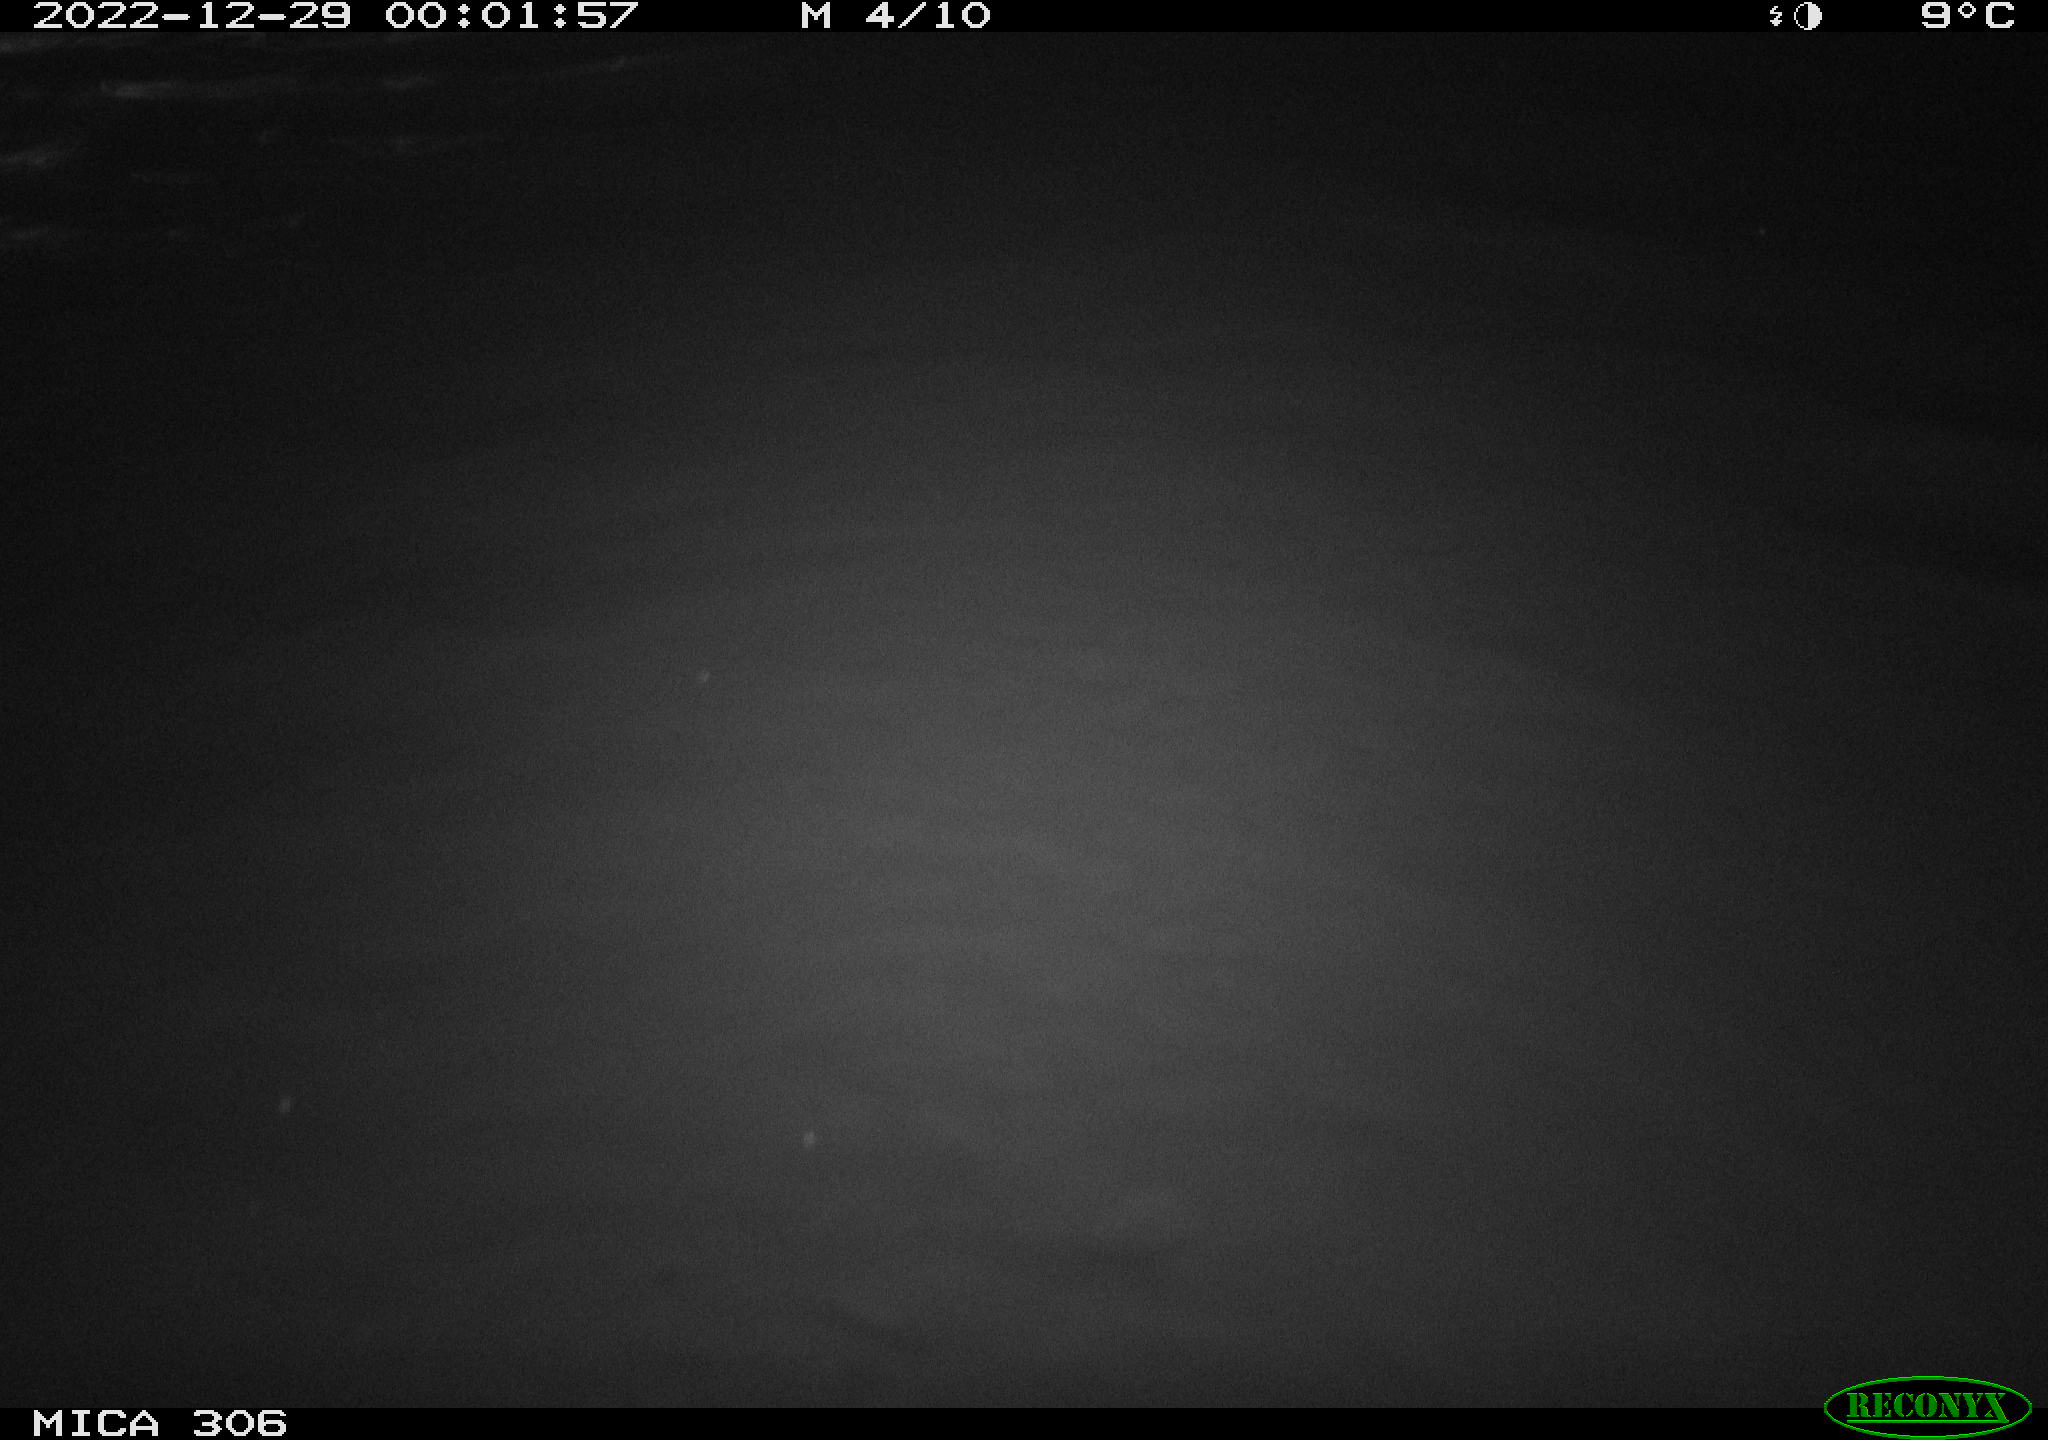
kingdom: Animalia
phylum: Chordata
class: Mammalia
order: Rodentia
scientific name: Rodentia
